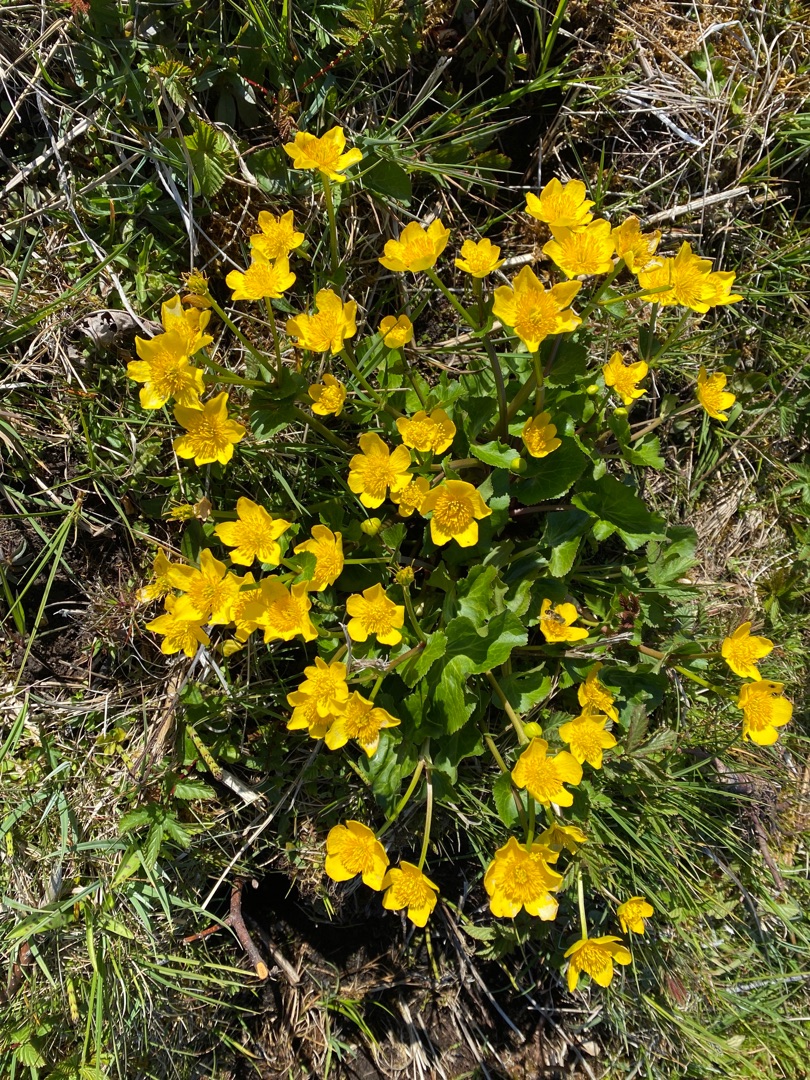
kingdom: Plantae
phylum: Tracheophyta
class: Magnoliopsida
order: Ranunculales
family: Ranunculaceae
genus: Caltha
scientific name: Caltha palustris
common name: Eng-kabbeleje
